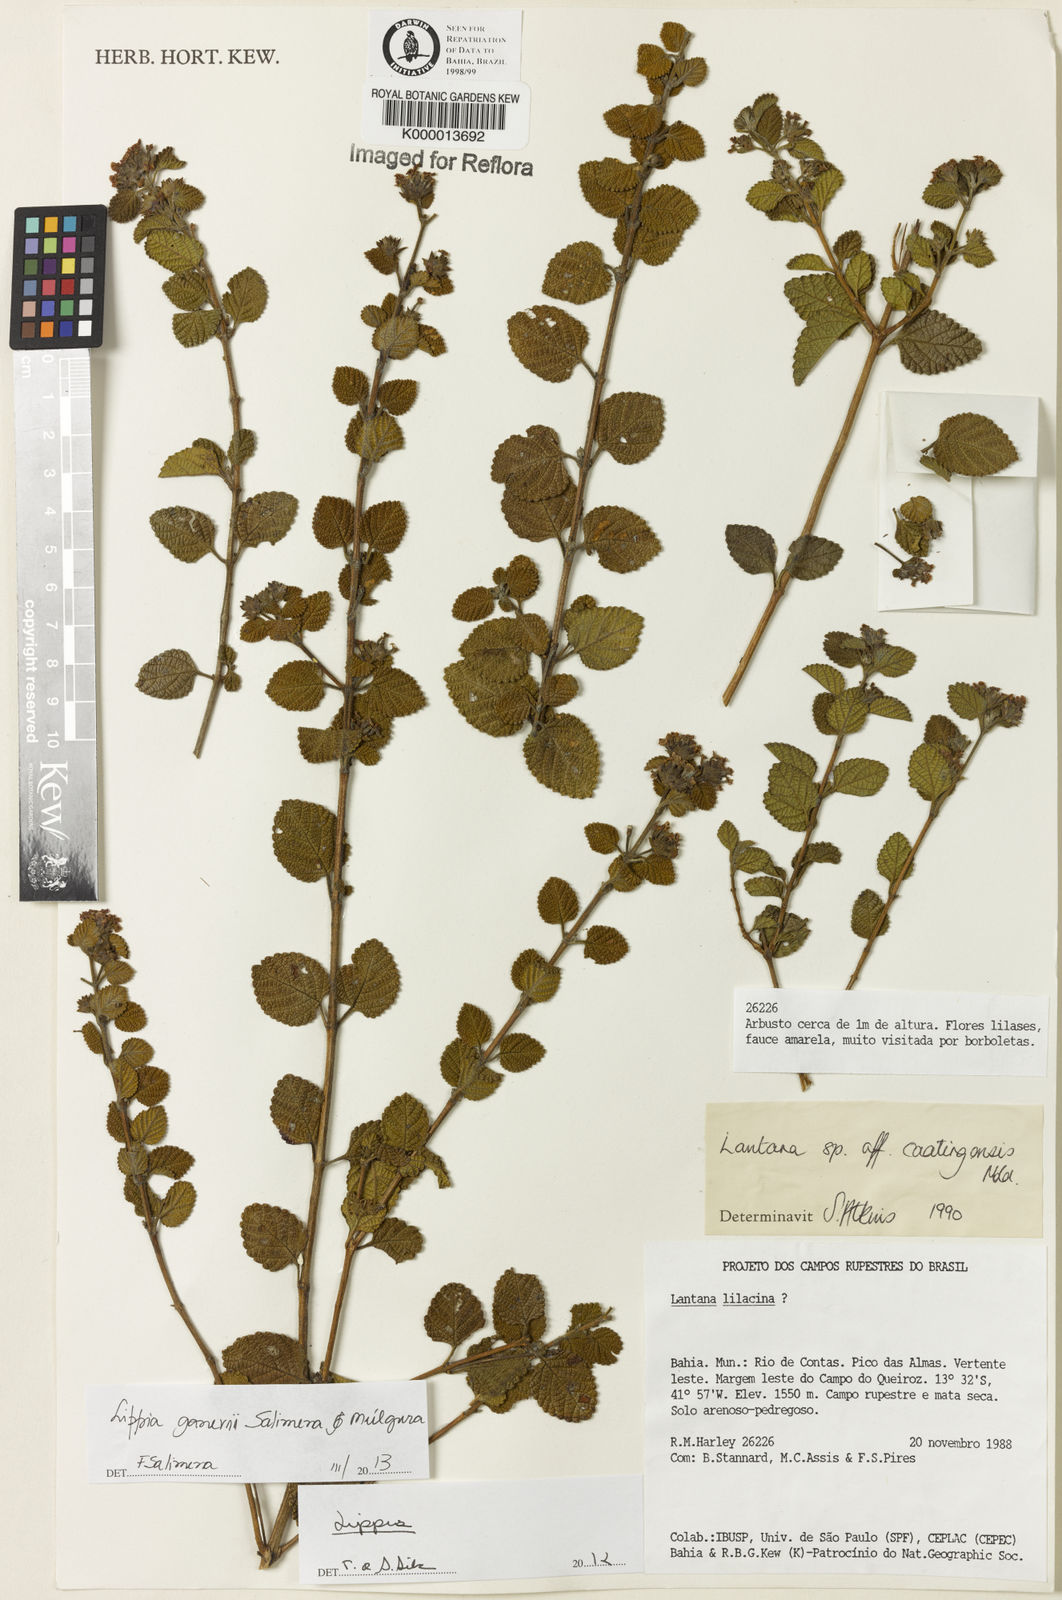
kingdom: Plantae
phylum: Tracheophyta
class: Magnoliopsida
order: Lamiales
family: Verbenaceae
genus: Lippia
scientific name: Lippia
